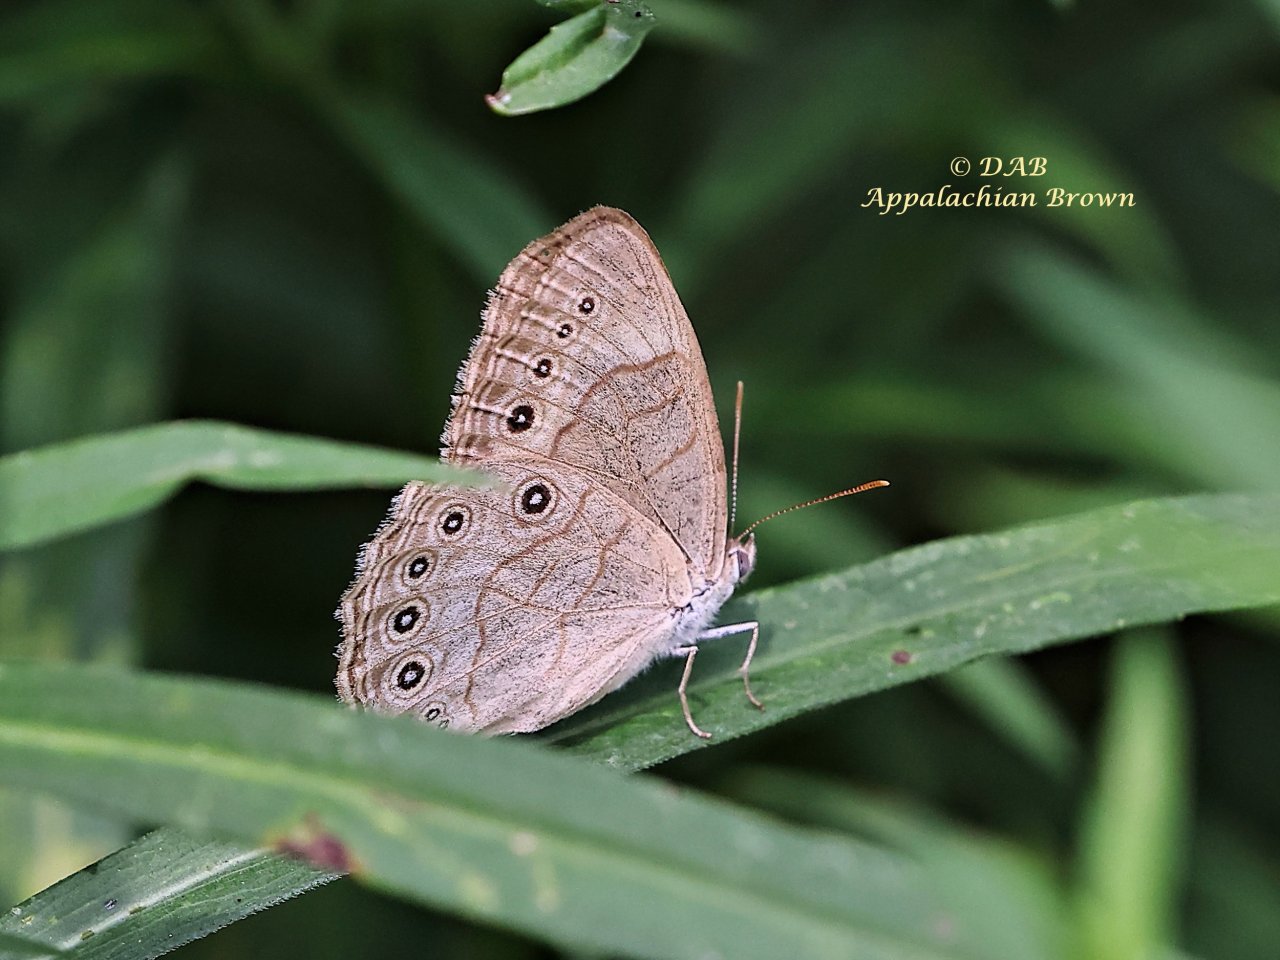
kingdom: Animalia
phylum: Arthropoda
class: Insecta
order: Lepidoptera
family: Nymphalidae
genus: Lethe
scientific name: Lethe eurydice
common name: Appalachian Eyed Brown
